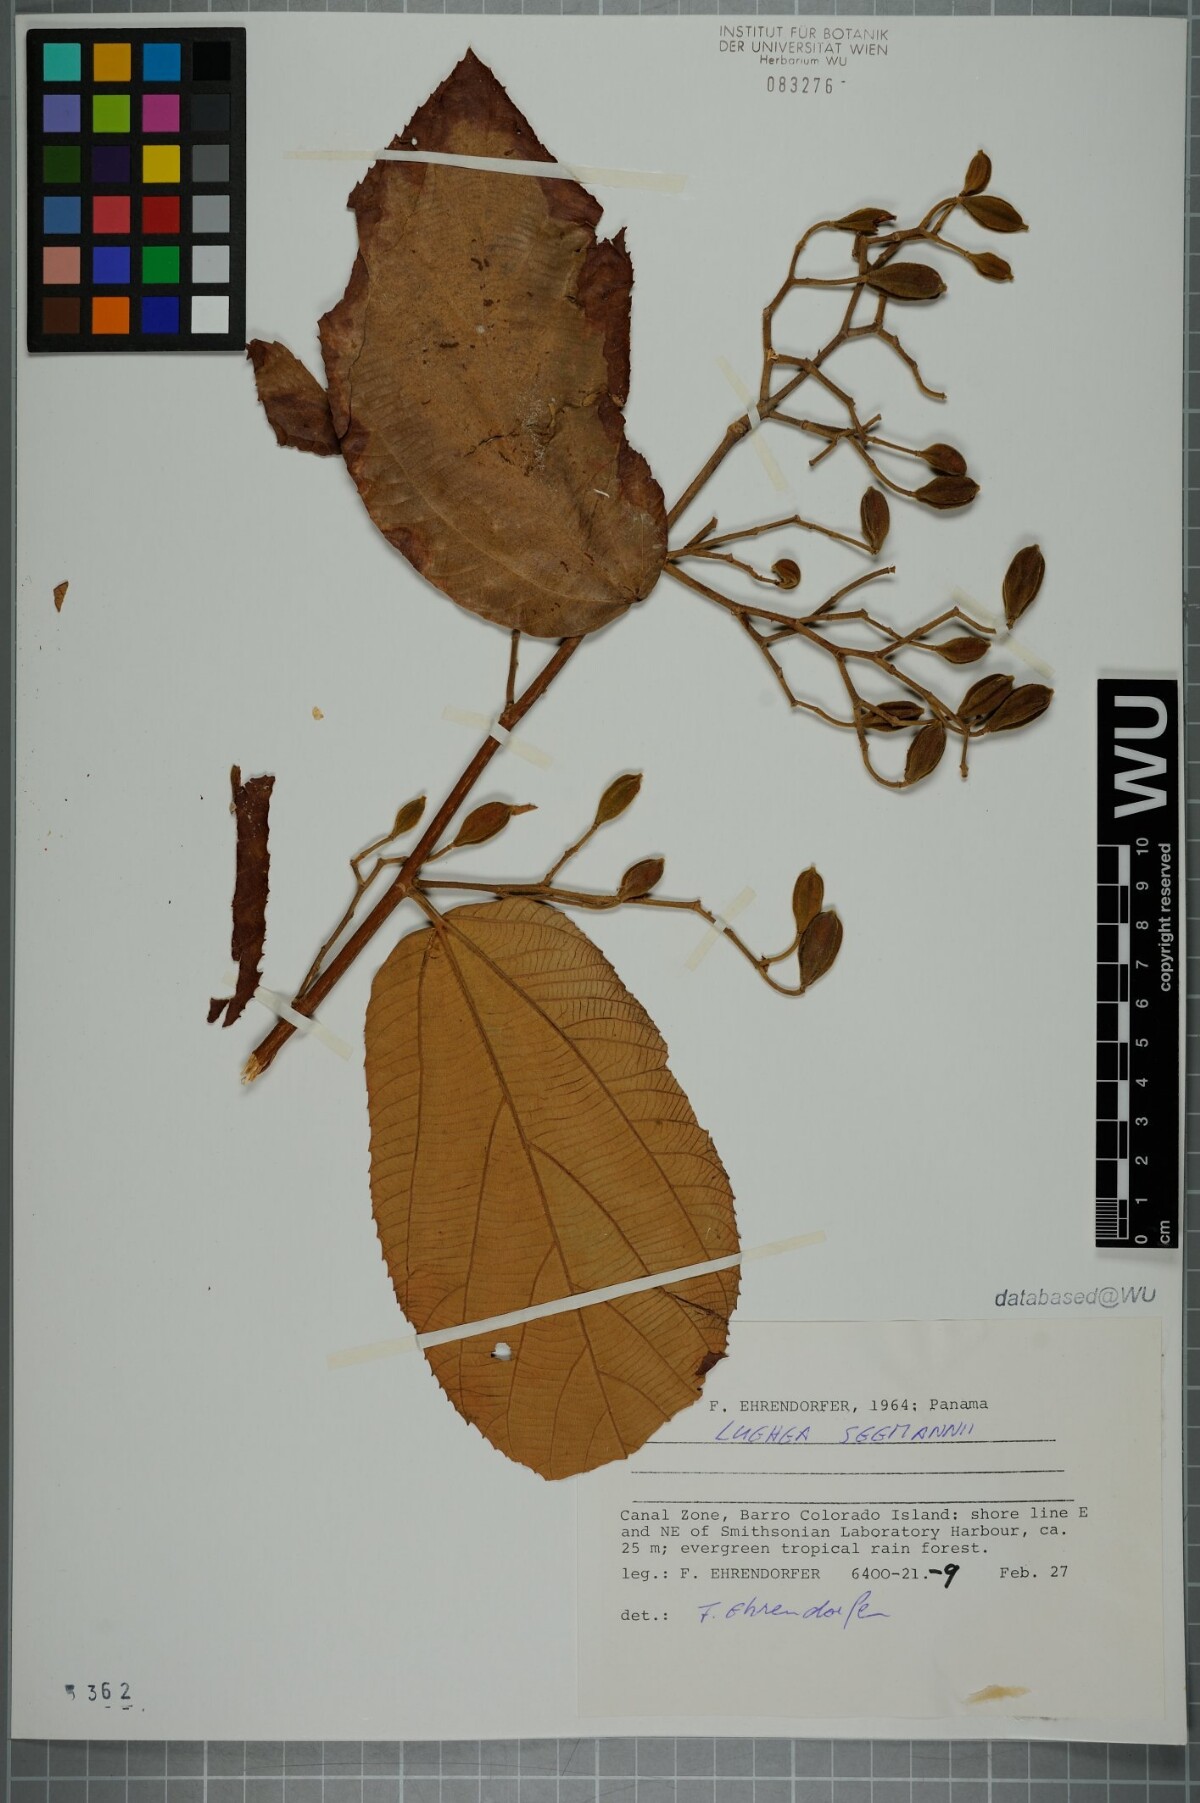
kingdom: Plantae
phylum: Tracheophyta
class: Magnoliopsida
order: Malvales
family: Malvaceae
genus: Luehea
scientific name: Luehea seemannii
